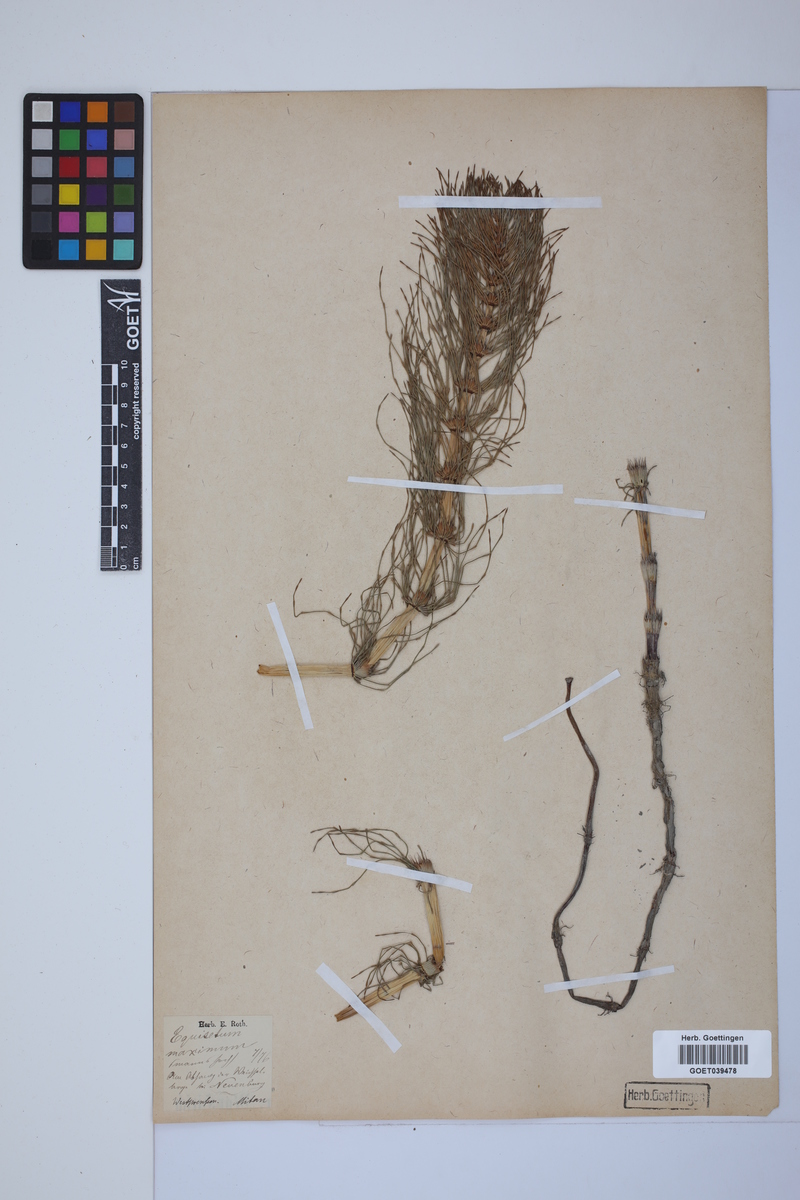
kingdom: Plantae
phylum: Tracheophyta
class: Polypodiopsida
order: Equisetales
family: Equisetaceae
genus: Equisetum
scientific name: Equisetum telmateia
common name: Great horsetail
